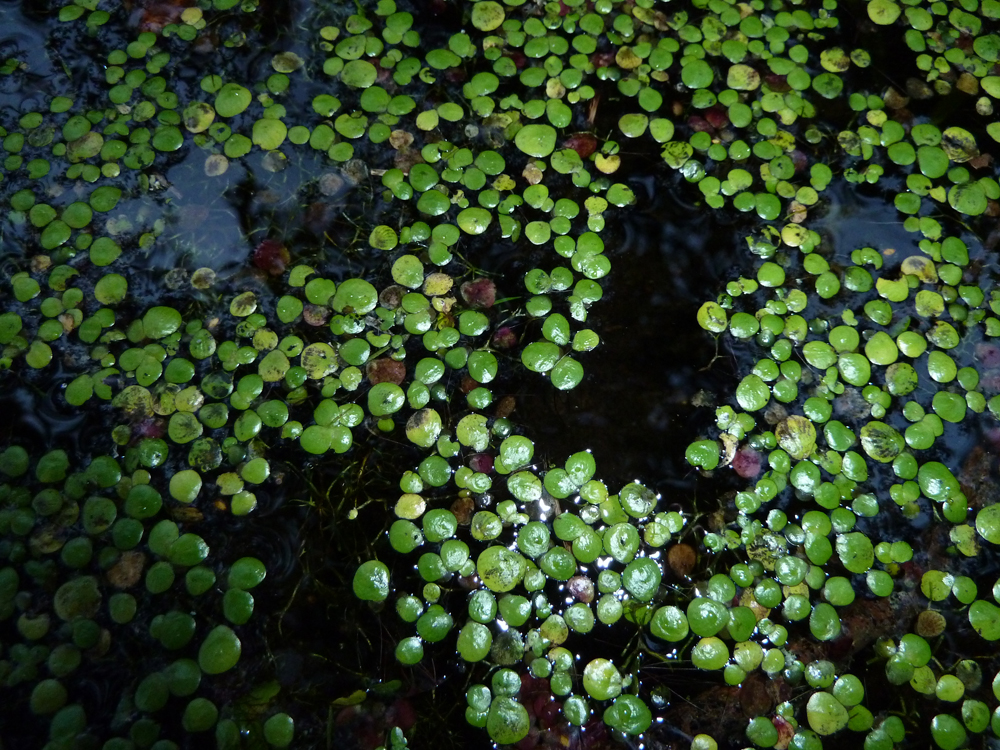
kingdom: Plantae
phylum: Tracheophyta
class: Liliopsida
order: Alismatales
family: Araceae
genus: Spirodela
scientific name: Spirodela polyrhiza
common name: Great duckweed
